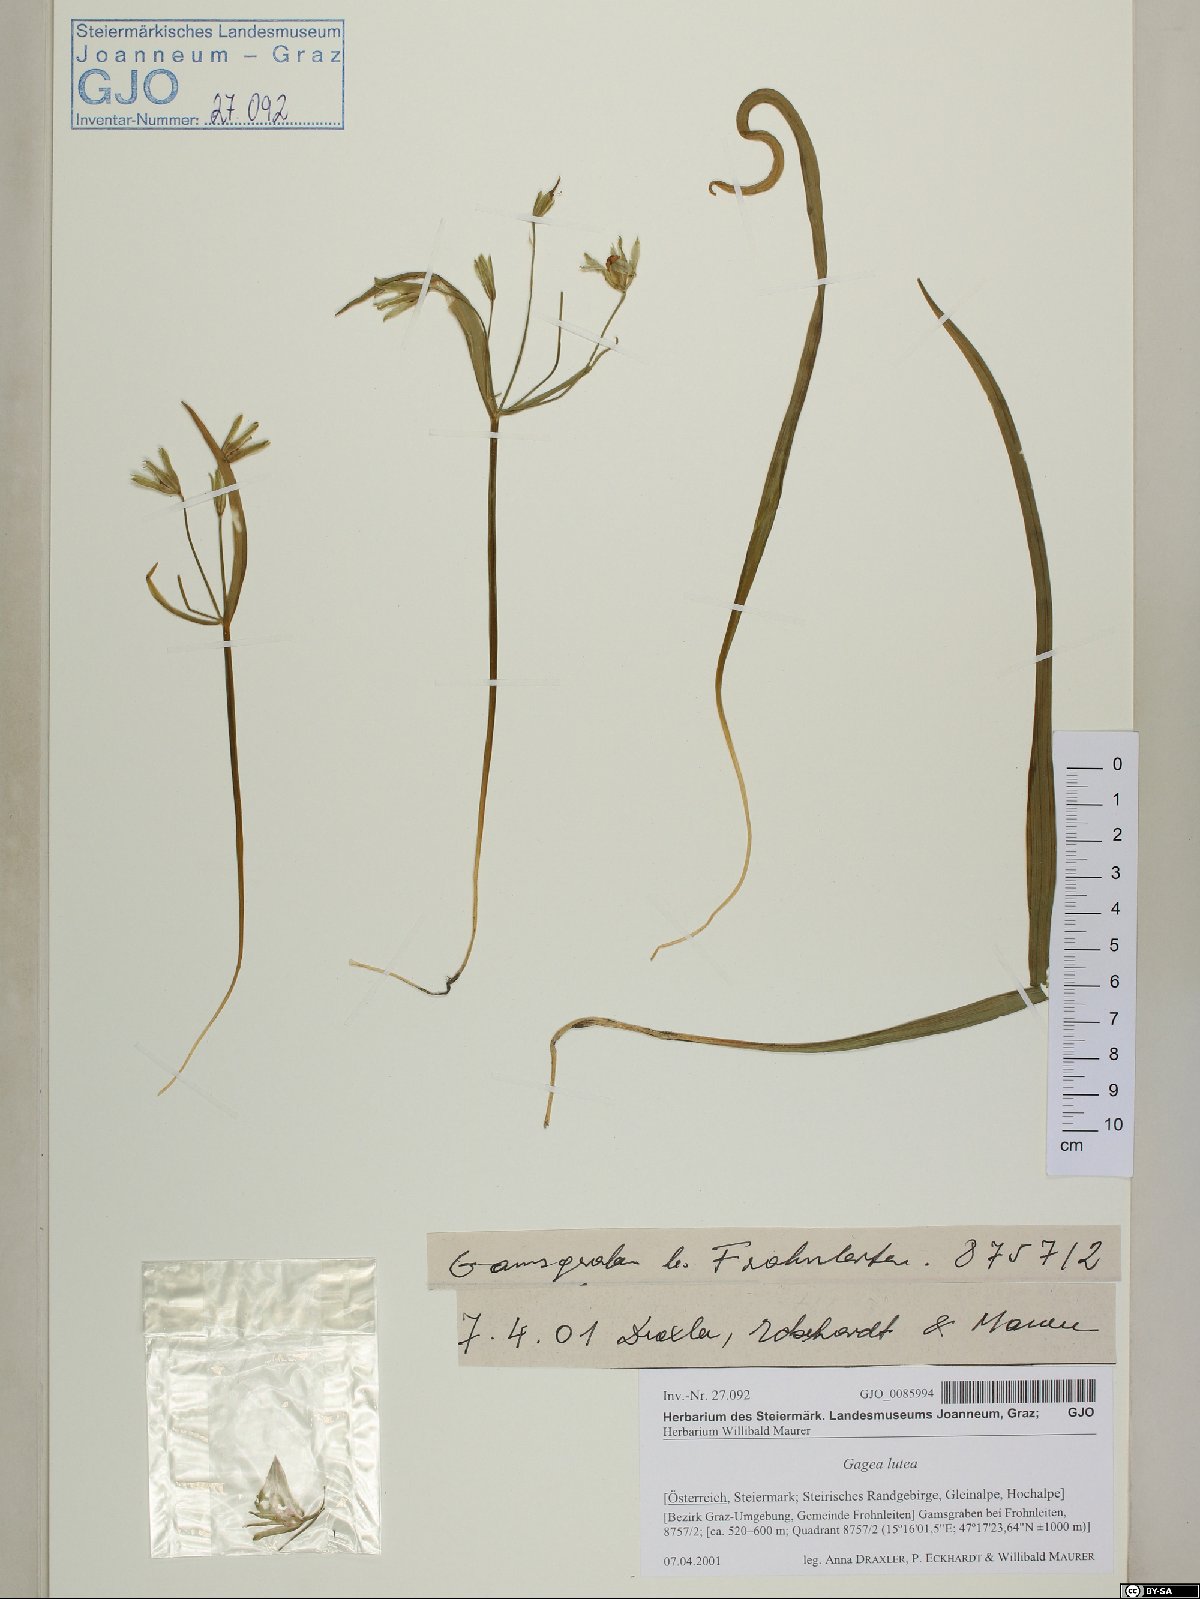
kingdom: Plantae
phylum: Tracheophyta
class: Liliopsida
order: Liliales
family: Liliaceae
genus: Gagea
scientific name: Gagea lutea
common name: Yellow star-of-bethlehem
